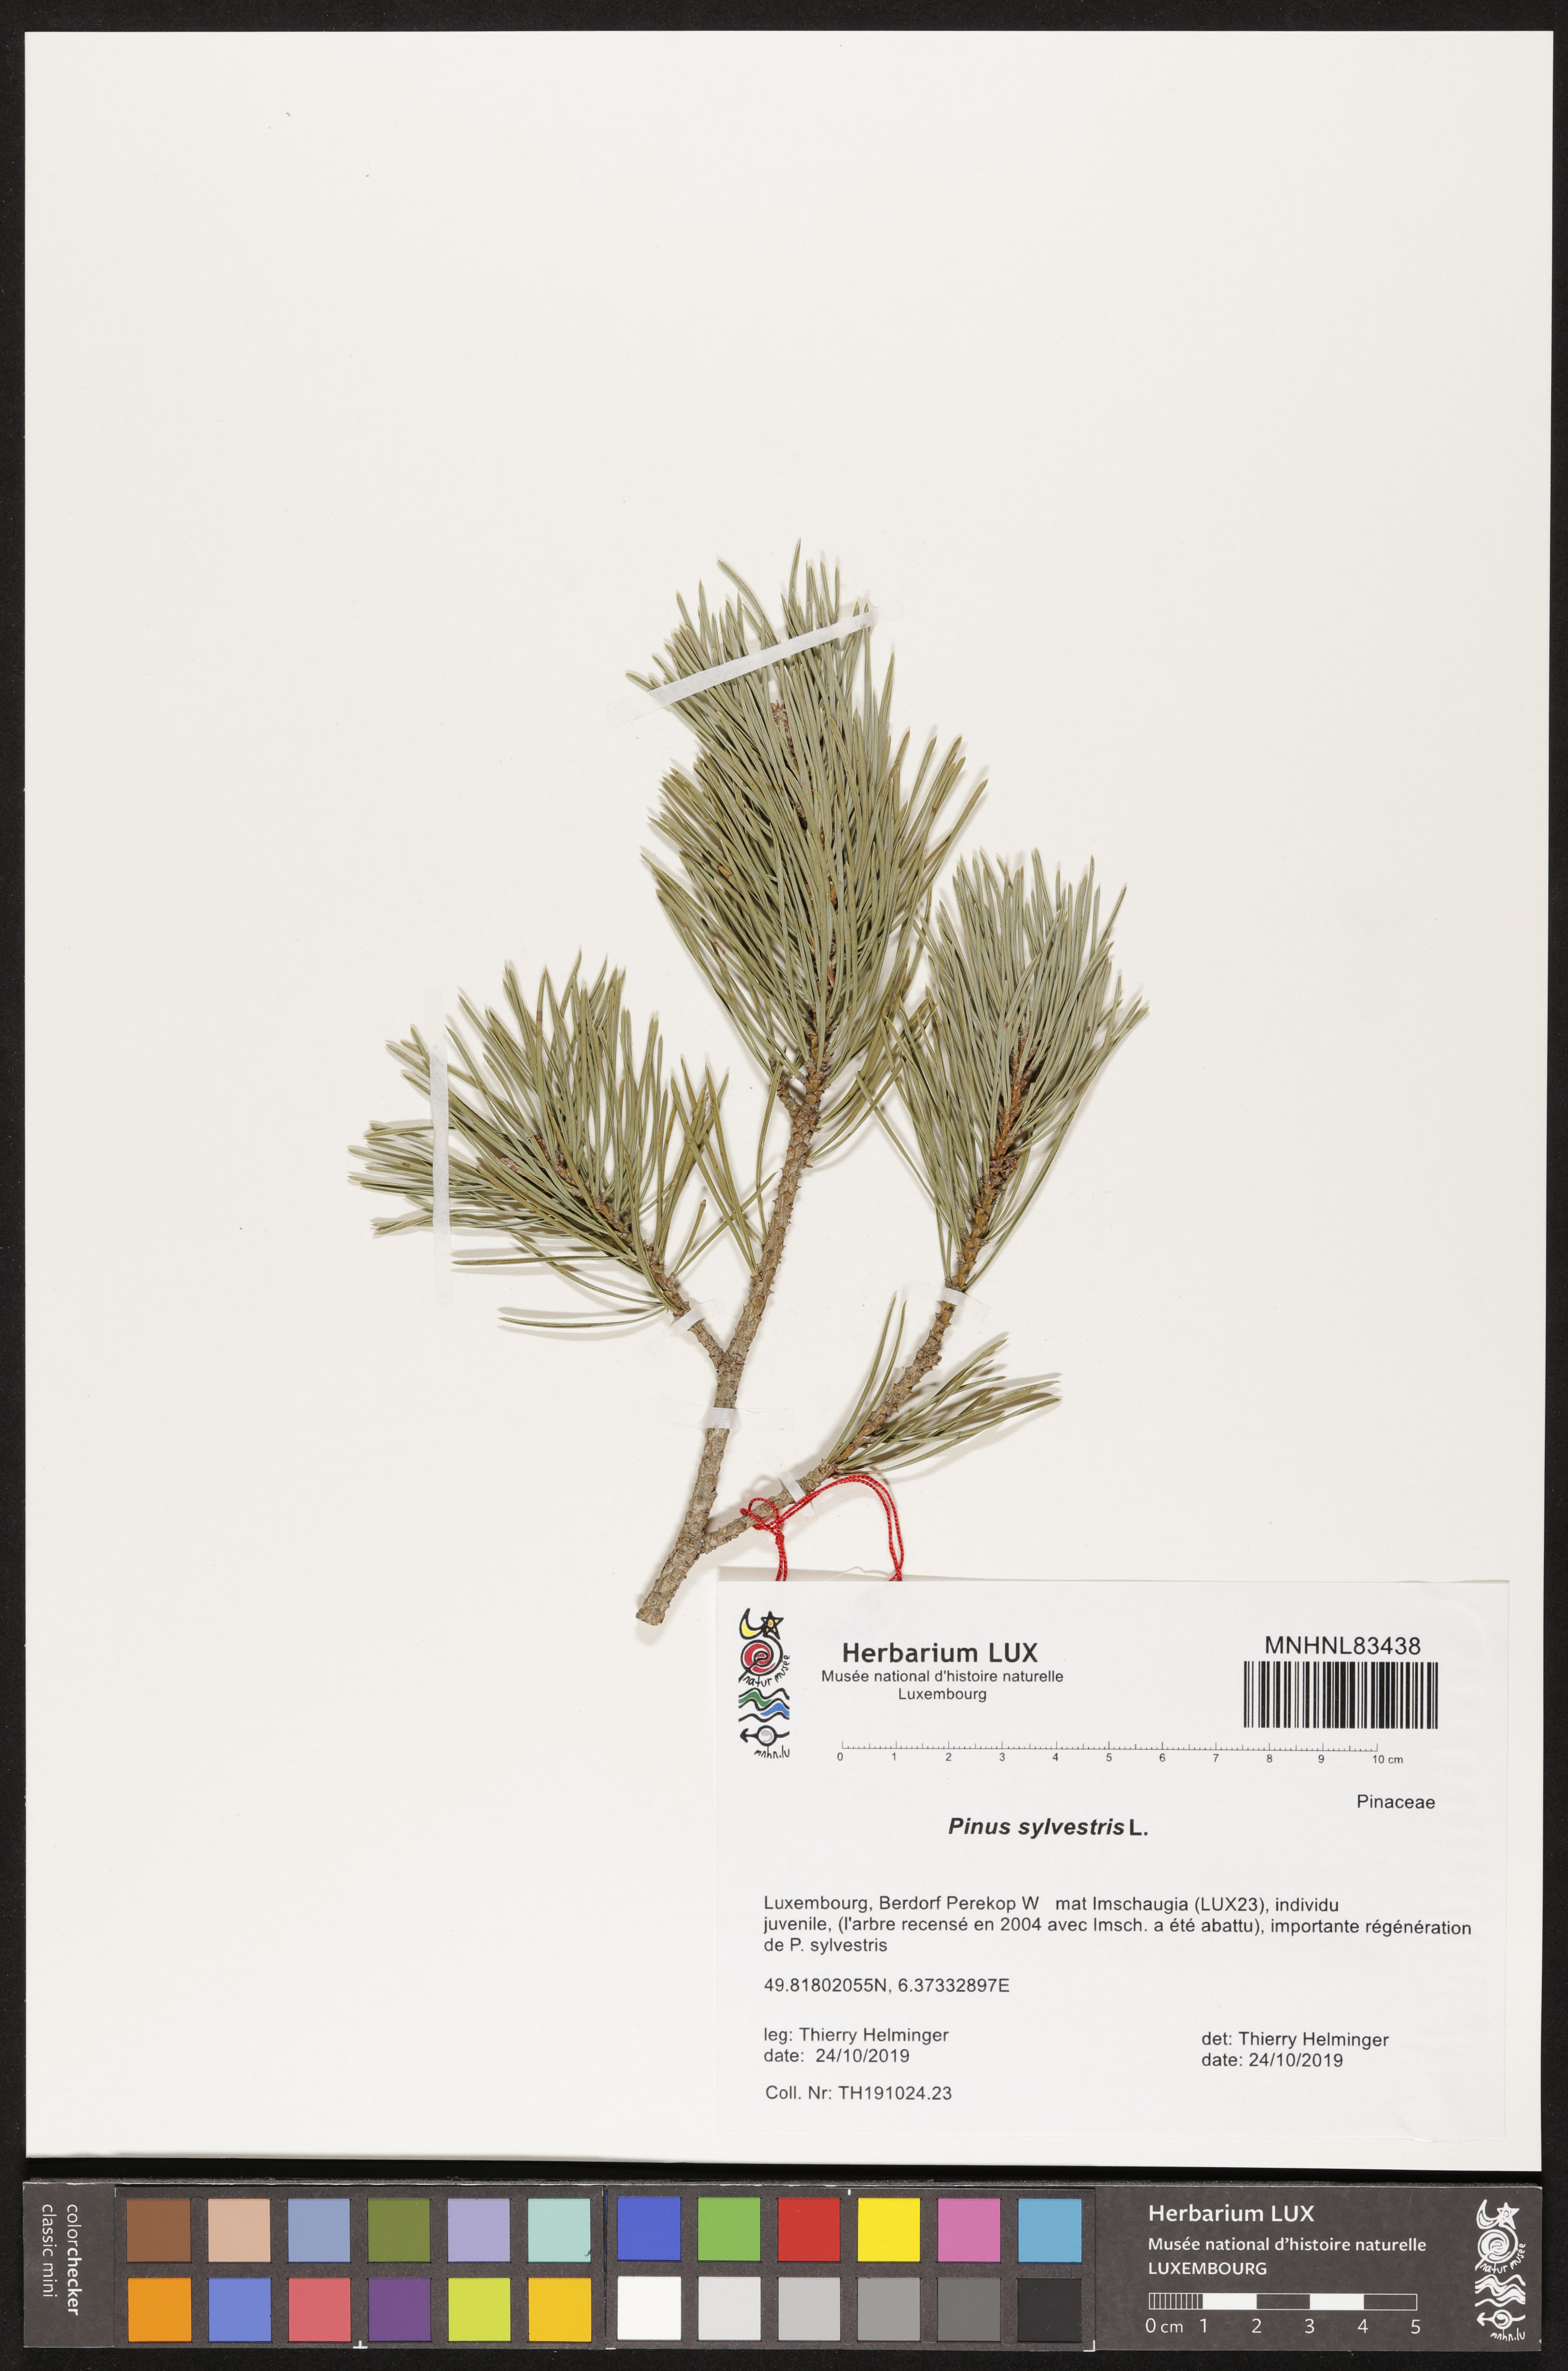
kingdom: Plantae
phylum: Tracheophyta
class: Pinopsida
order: Pinales
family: Pinaceae
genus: Pinus
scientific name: Pinus sylvestris
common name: Scots pine
